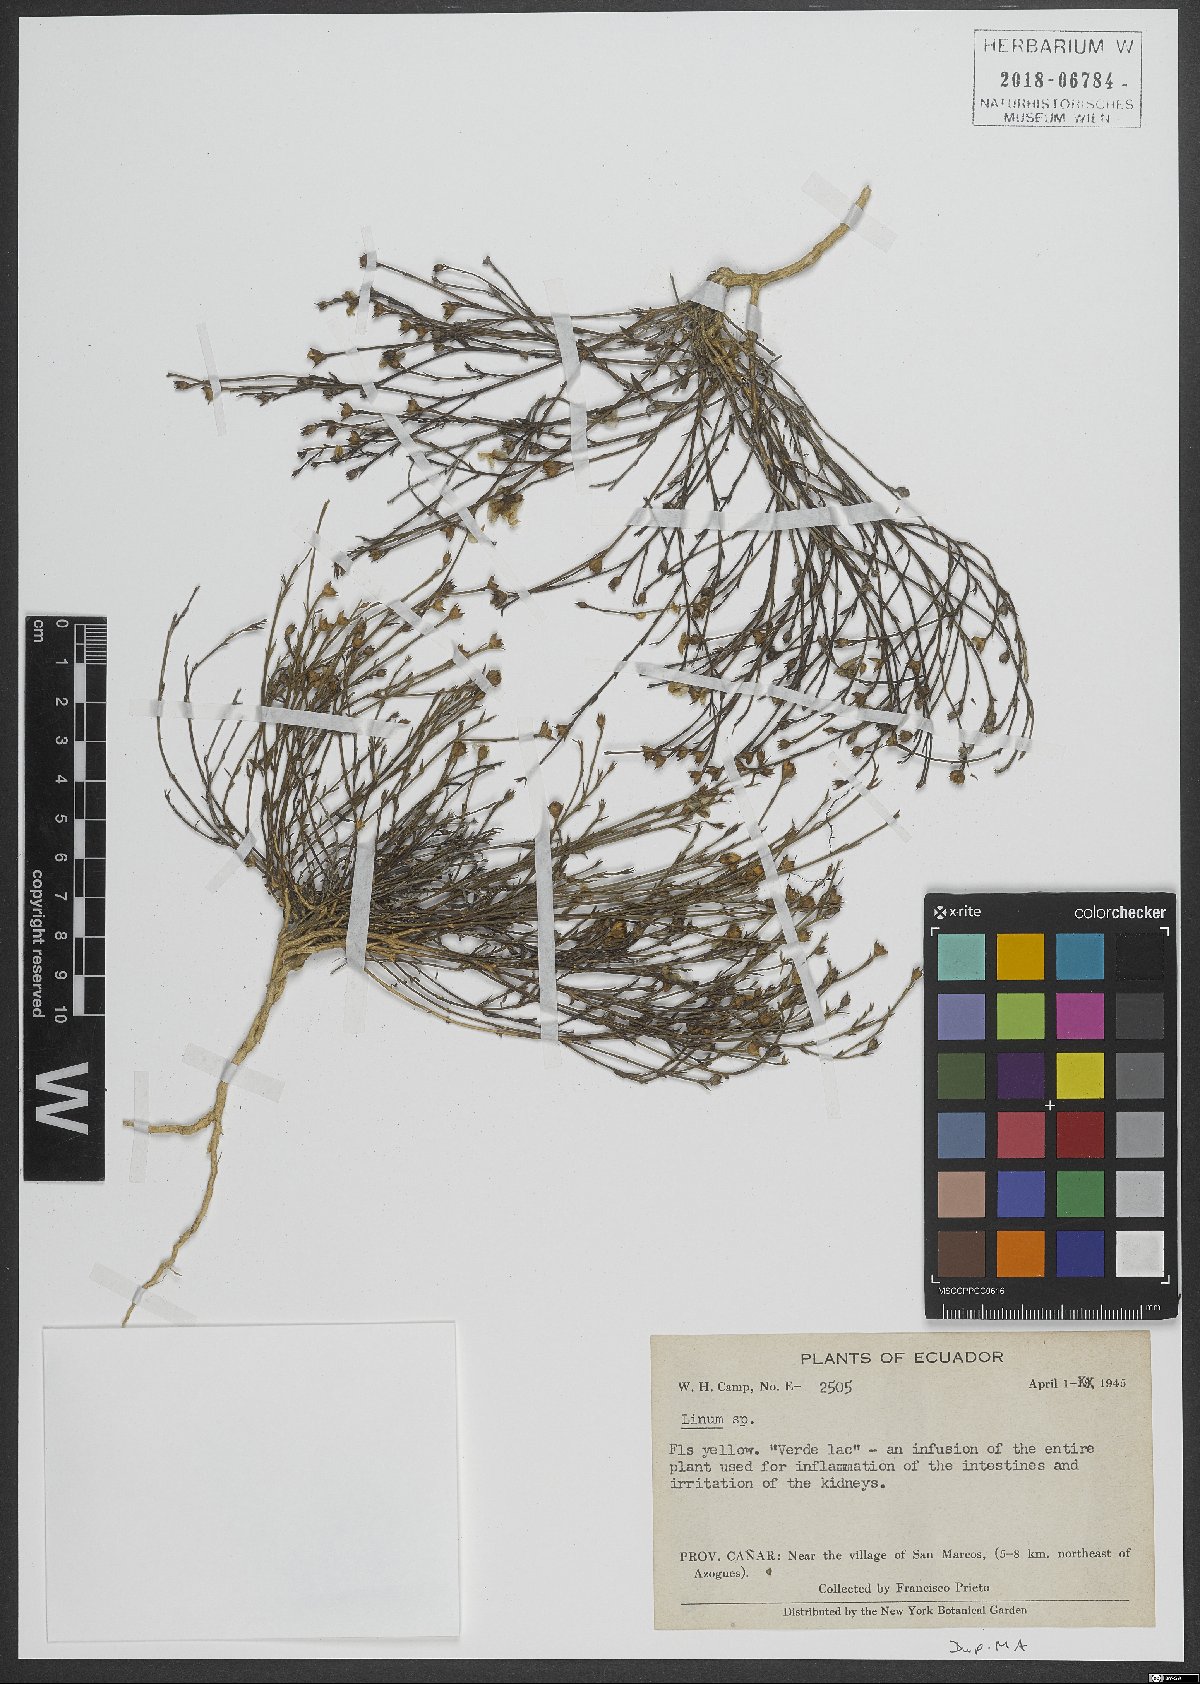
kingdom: Plantae
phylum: Tracheophyta
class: Magnoliopsida
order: Malpighiales
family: Linaceae
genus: Linum
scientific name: Linum
